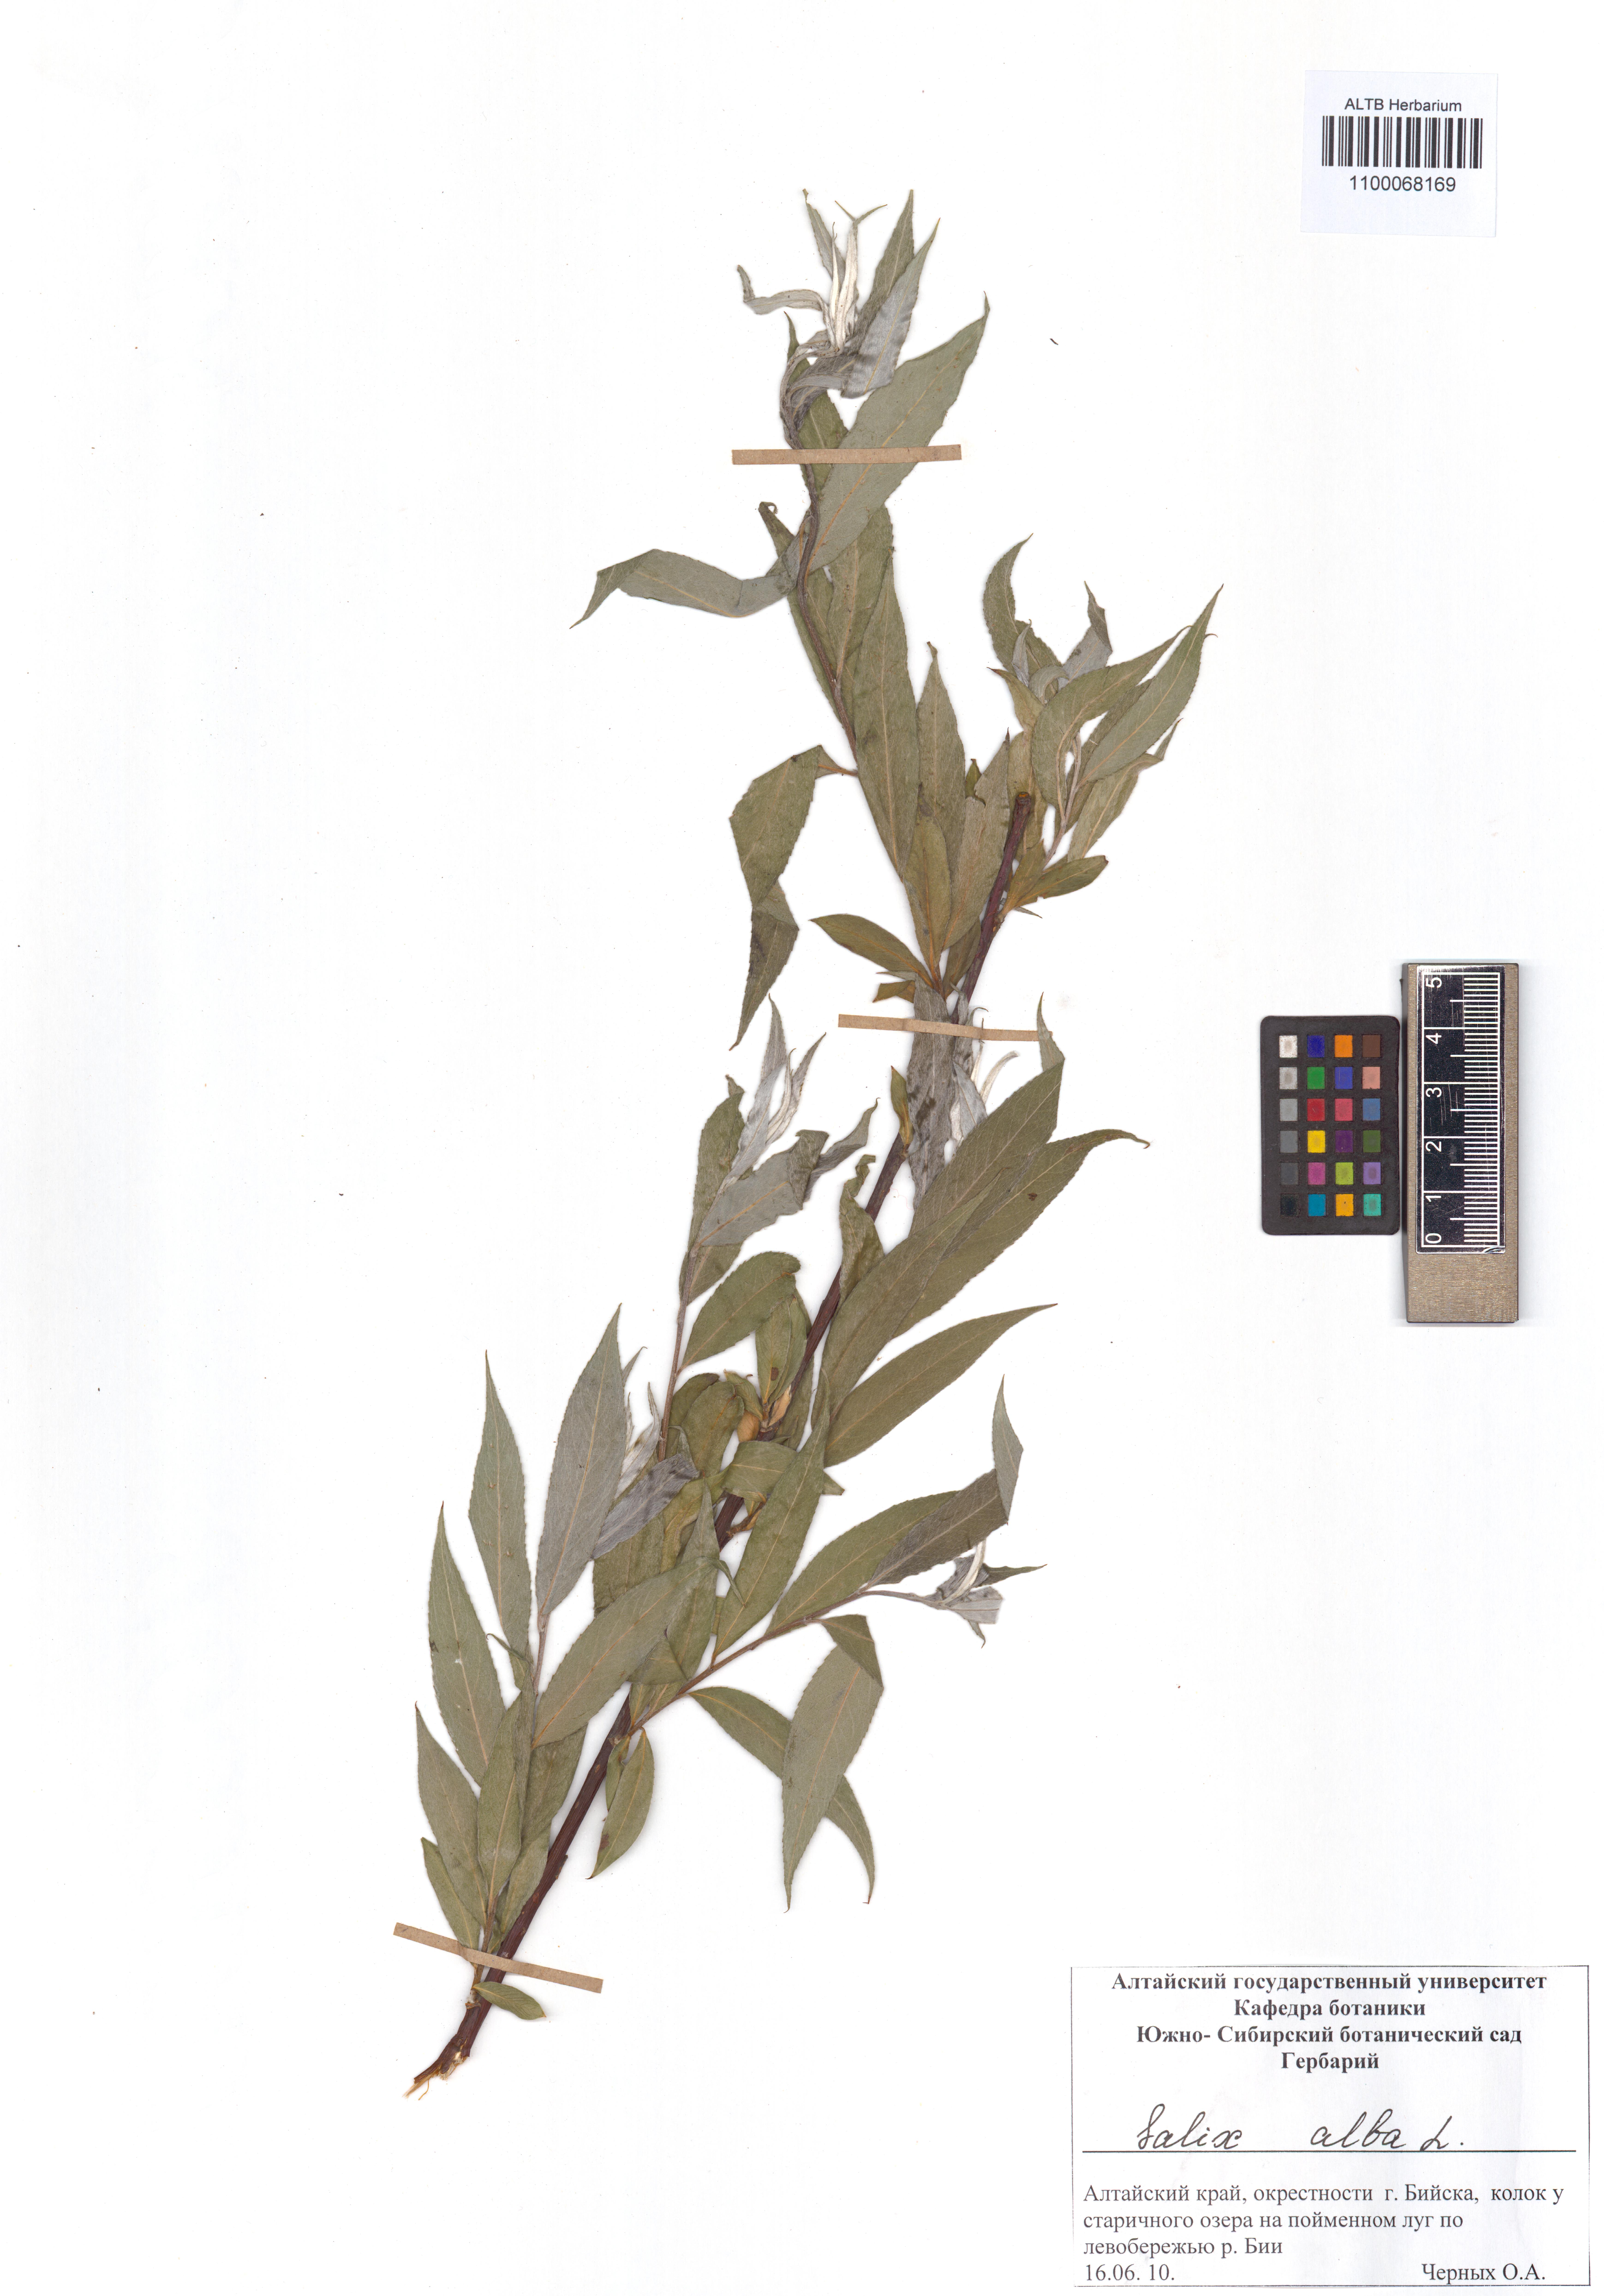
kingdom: Plantae
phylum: Tracheophyta
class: Magnoliopsida
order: Malpighiales
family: Salicaceae
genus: Salix
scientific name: Salix alba
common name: White willow
